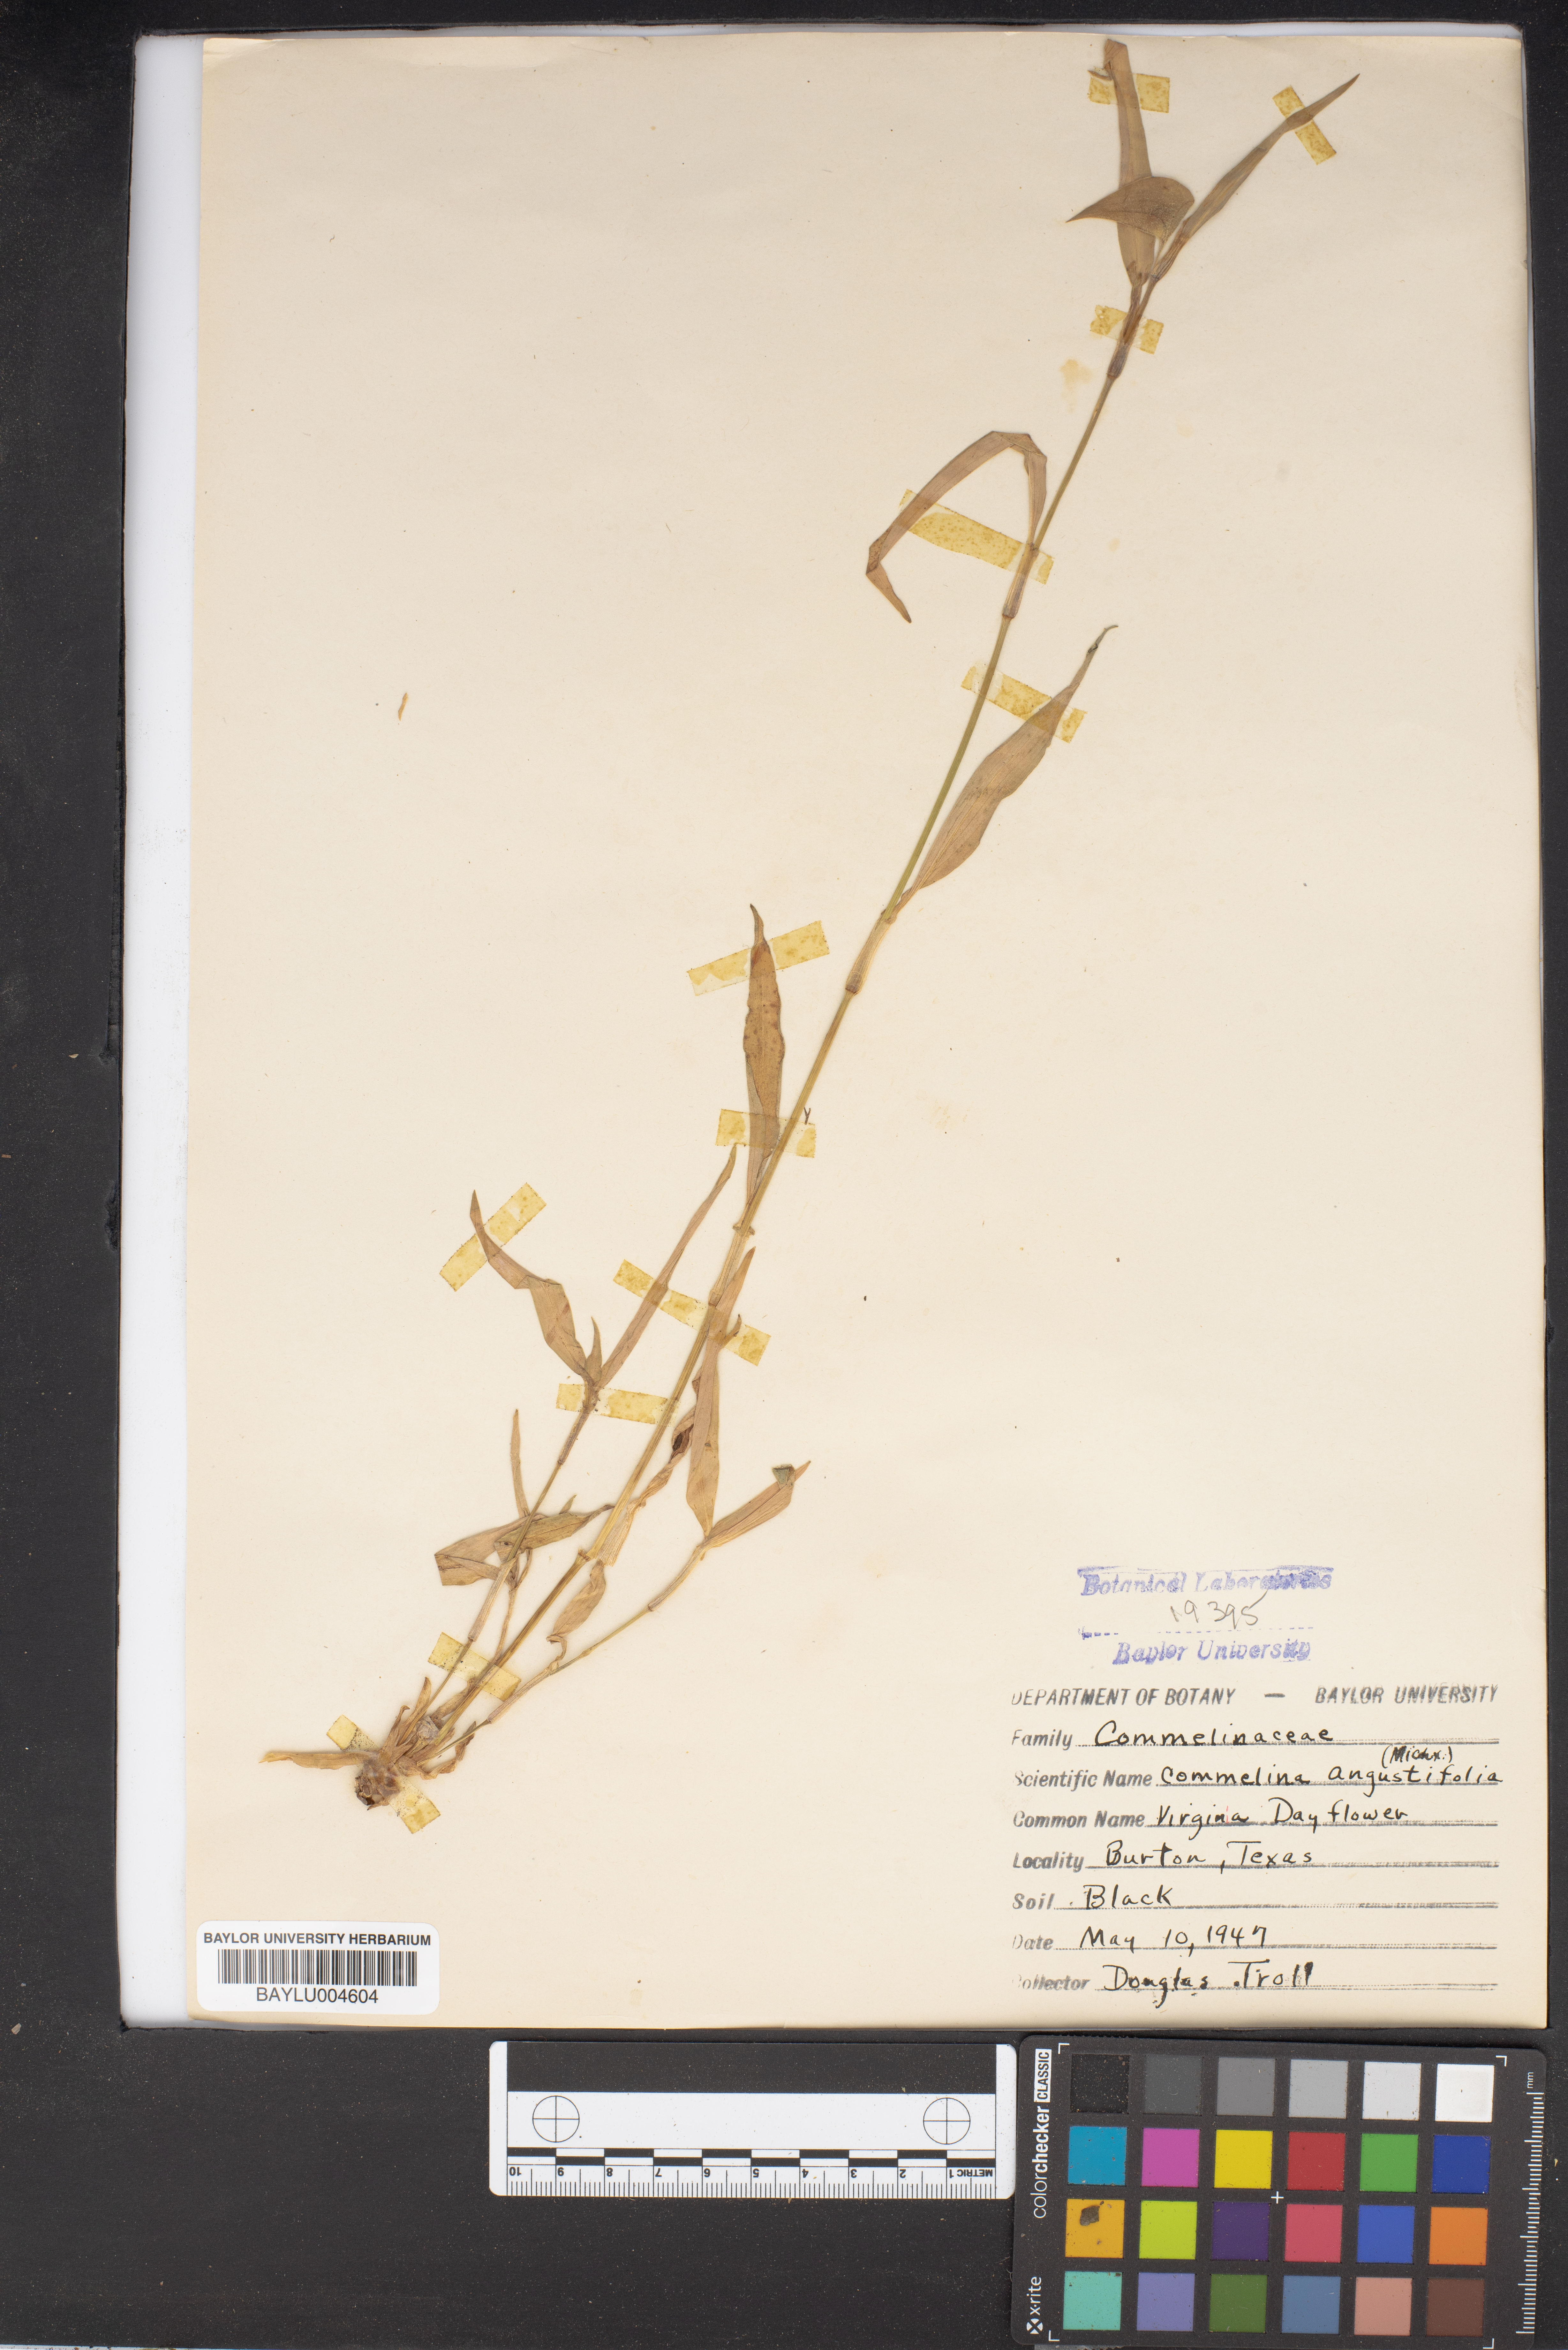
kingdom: Plantae
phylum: Tracheophyta
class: Liliopsida
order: Commelinales
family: Commelinaceae
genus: Commelina
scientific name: Commelina erecta
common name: Blousel blommetjie
